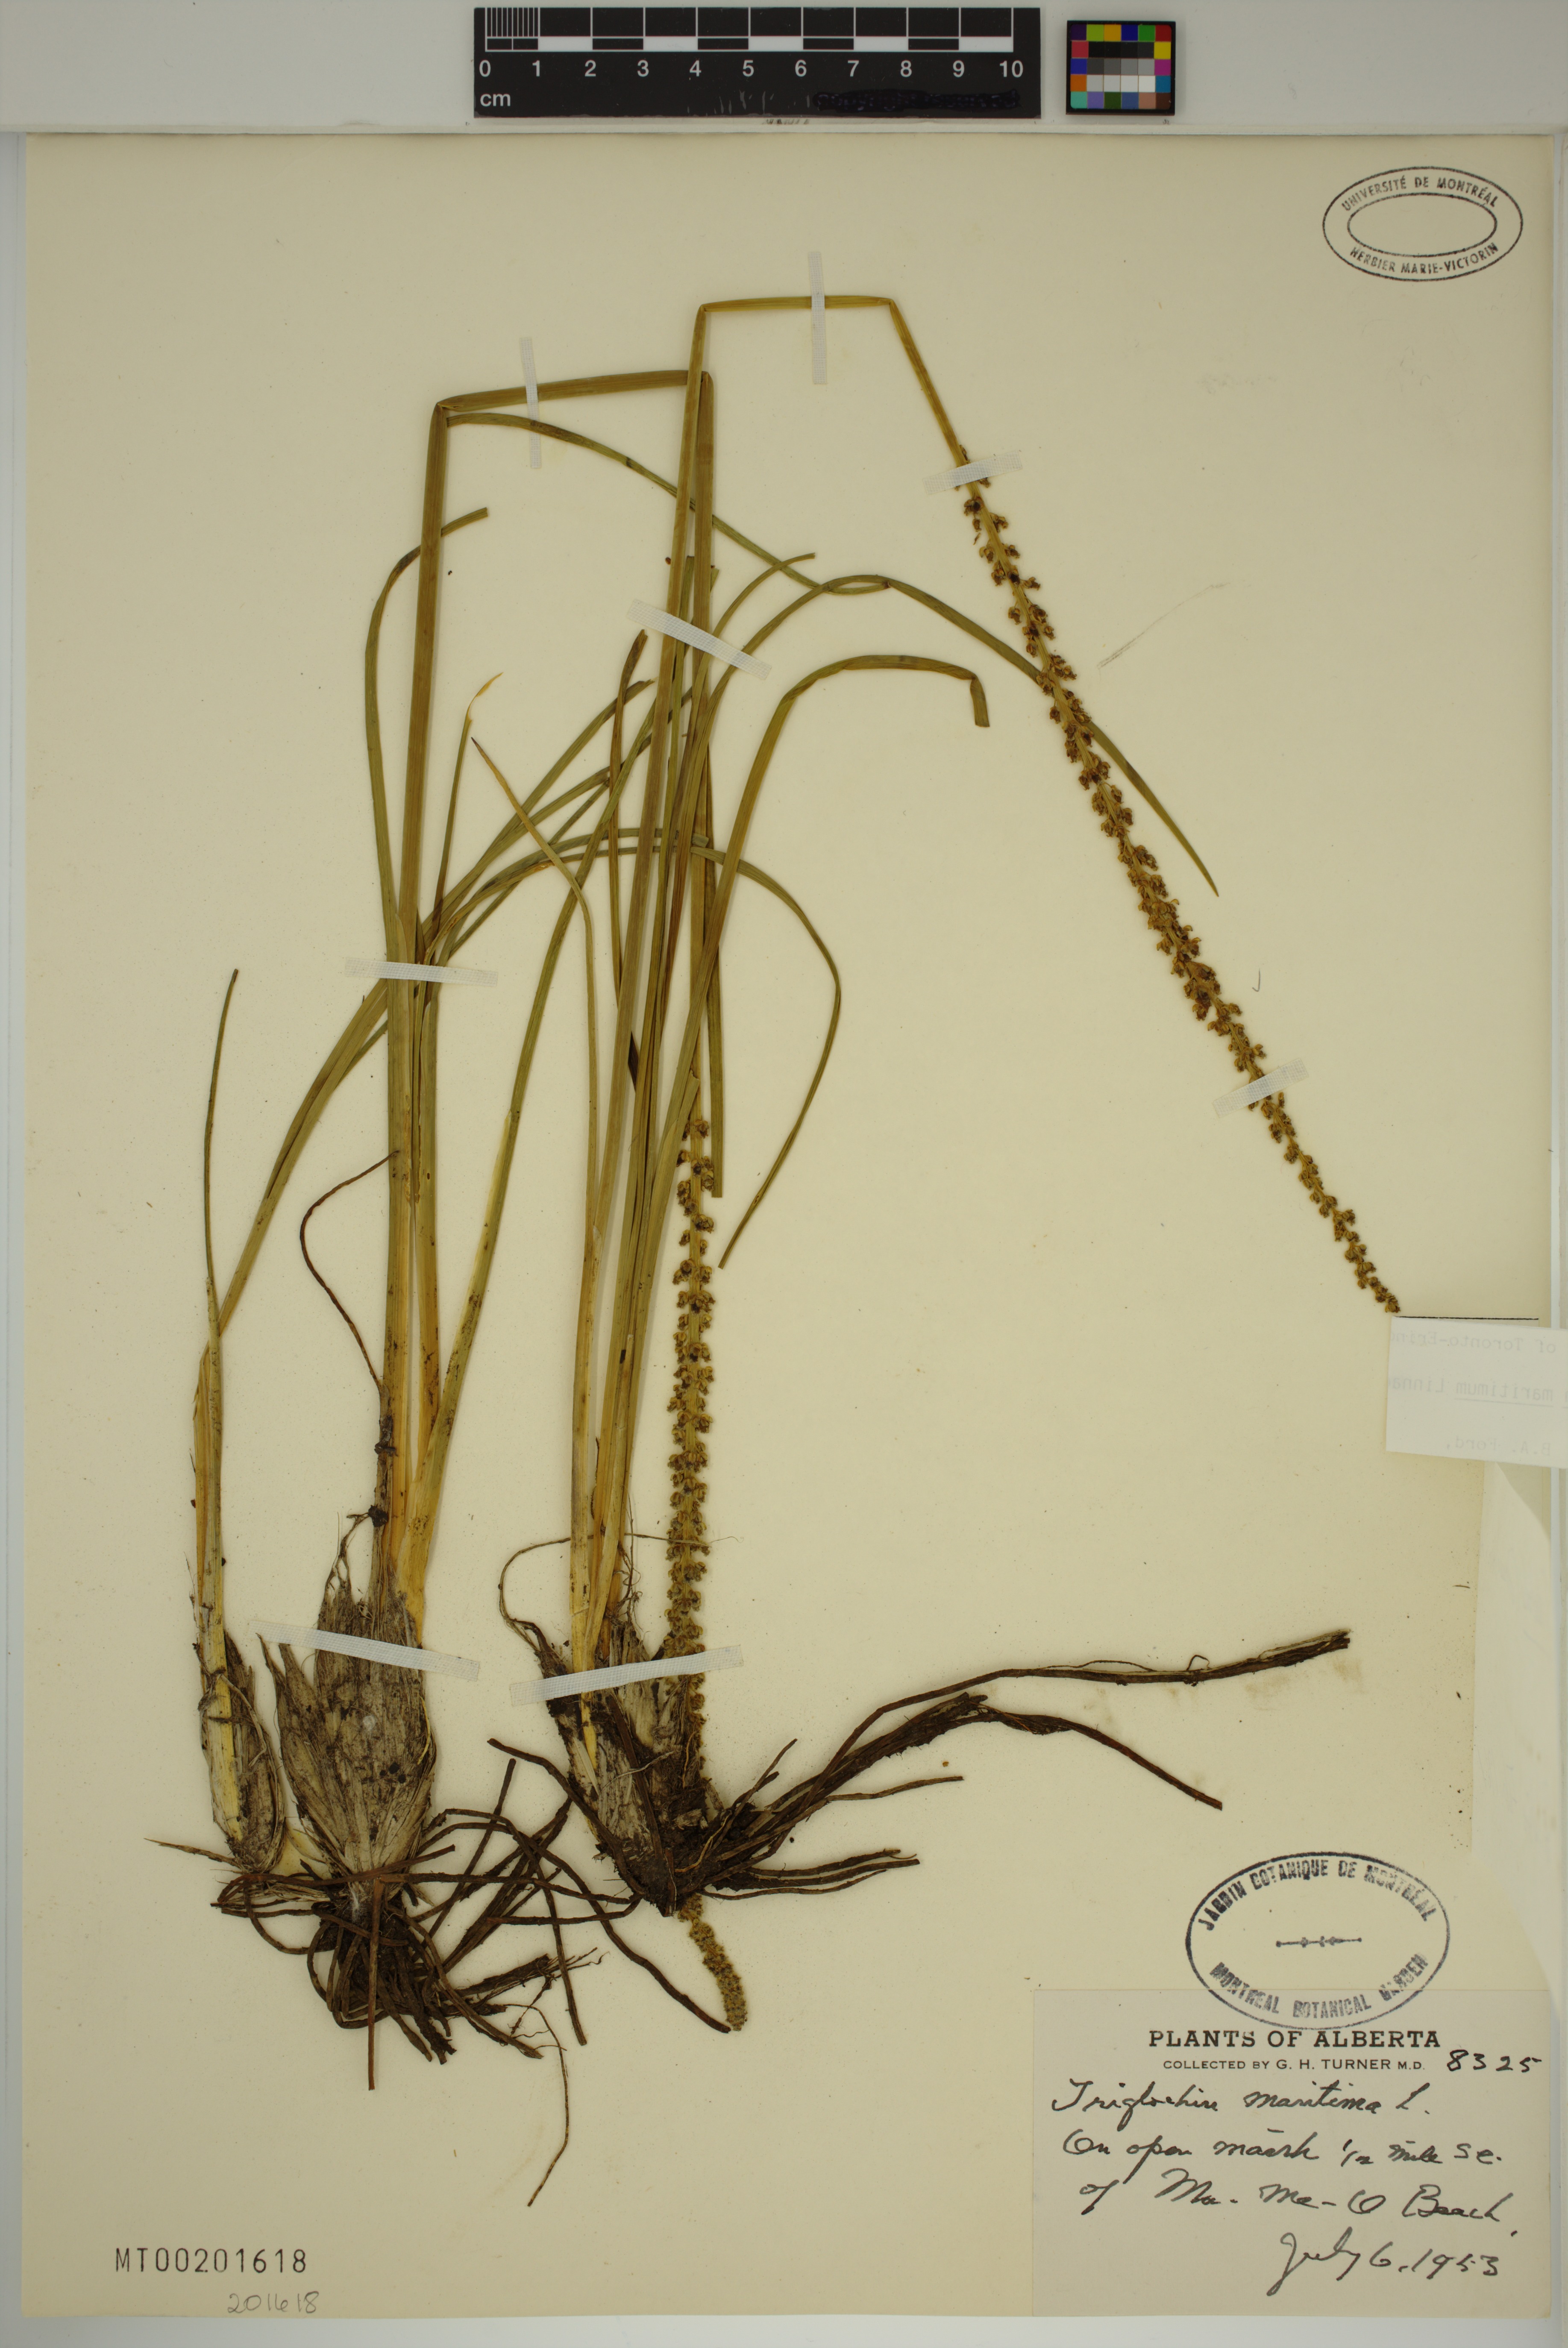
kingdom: Plantae
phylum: Tracheophyta
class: Liliopsida
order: Alismatales
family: Juncaginaceae
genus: Triglochin
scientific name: Triglochin maritima
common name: Sea arrowgrass
